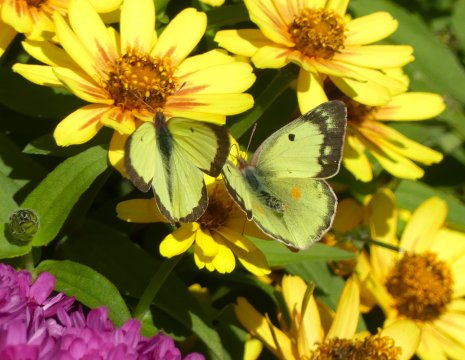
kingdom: Animalia
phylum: Arthropoda
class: Insecta
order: Lepidoptera
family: Pieridae
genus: Colias
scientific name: Colias philodice
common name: Clouded Sulphur
